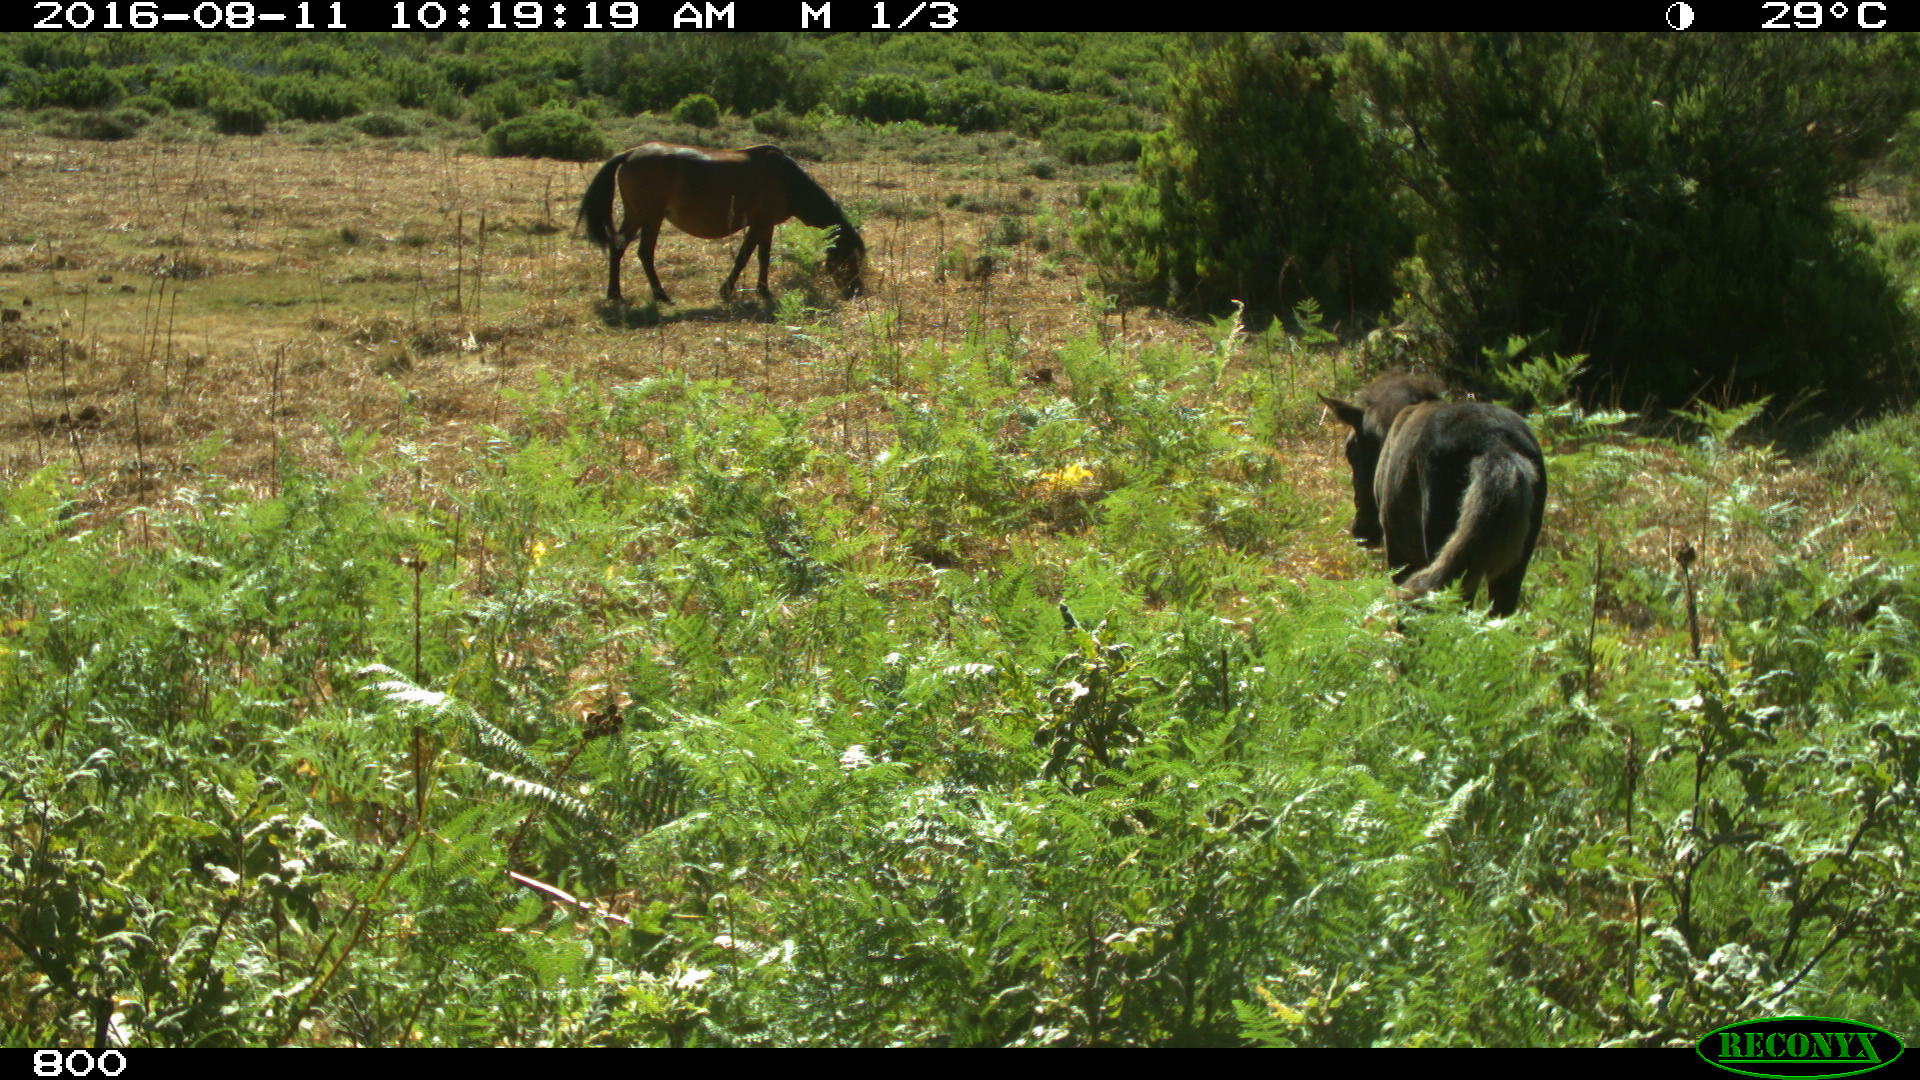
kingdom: Animalia
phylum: Chordata
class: Mammalia
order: Perissodactyla
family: Equidae
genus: Equus
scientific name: Equus caballus
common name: Horse
